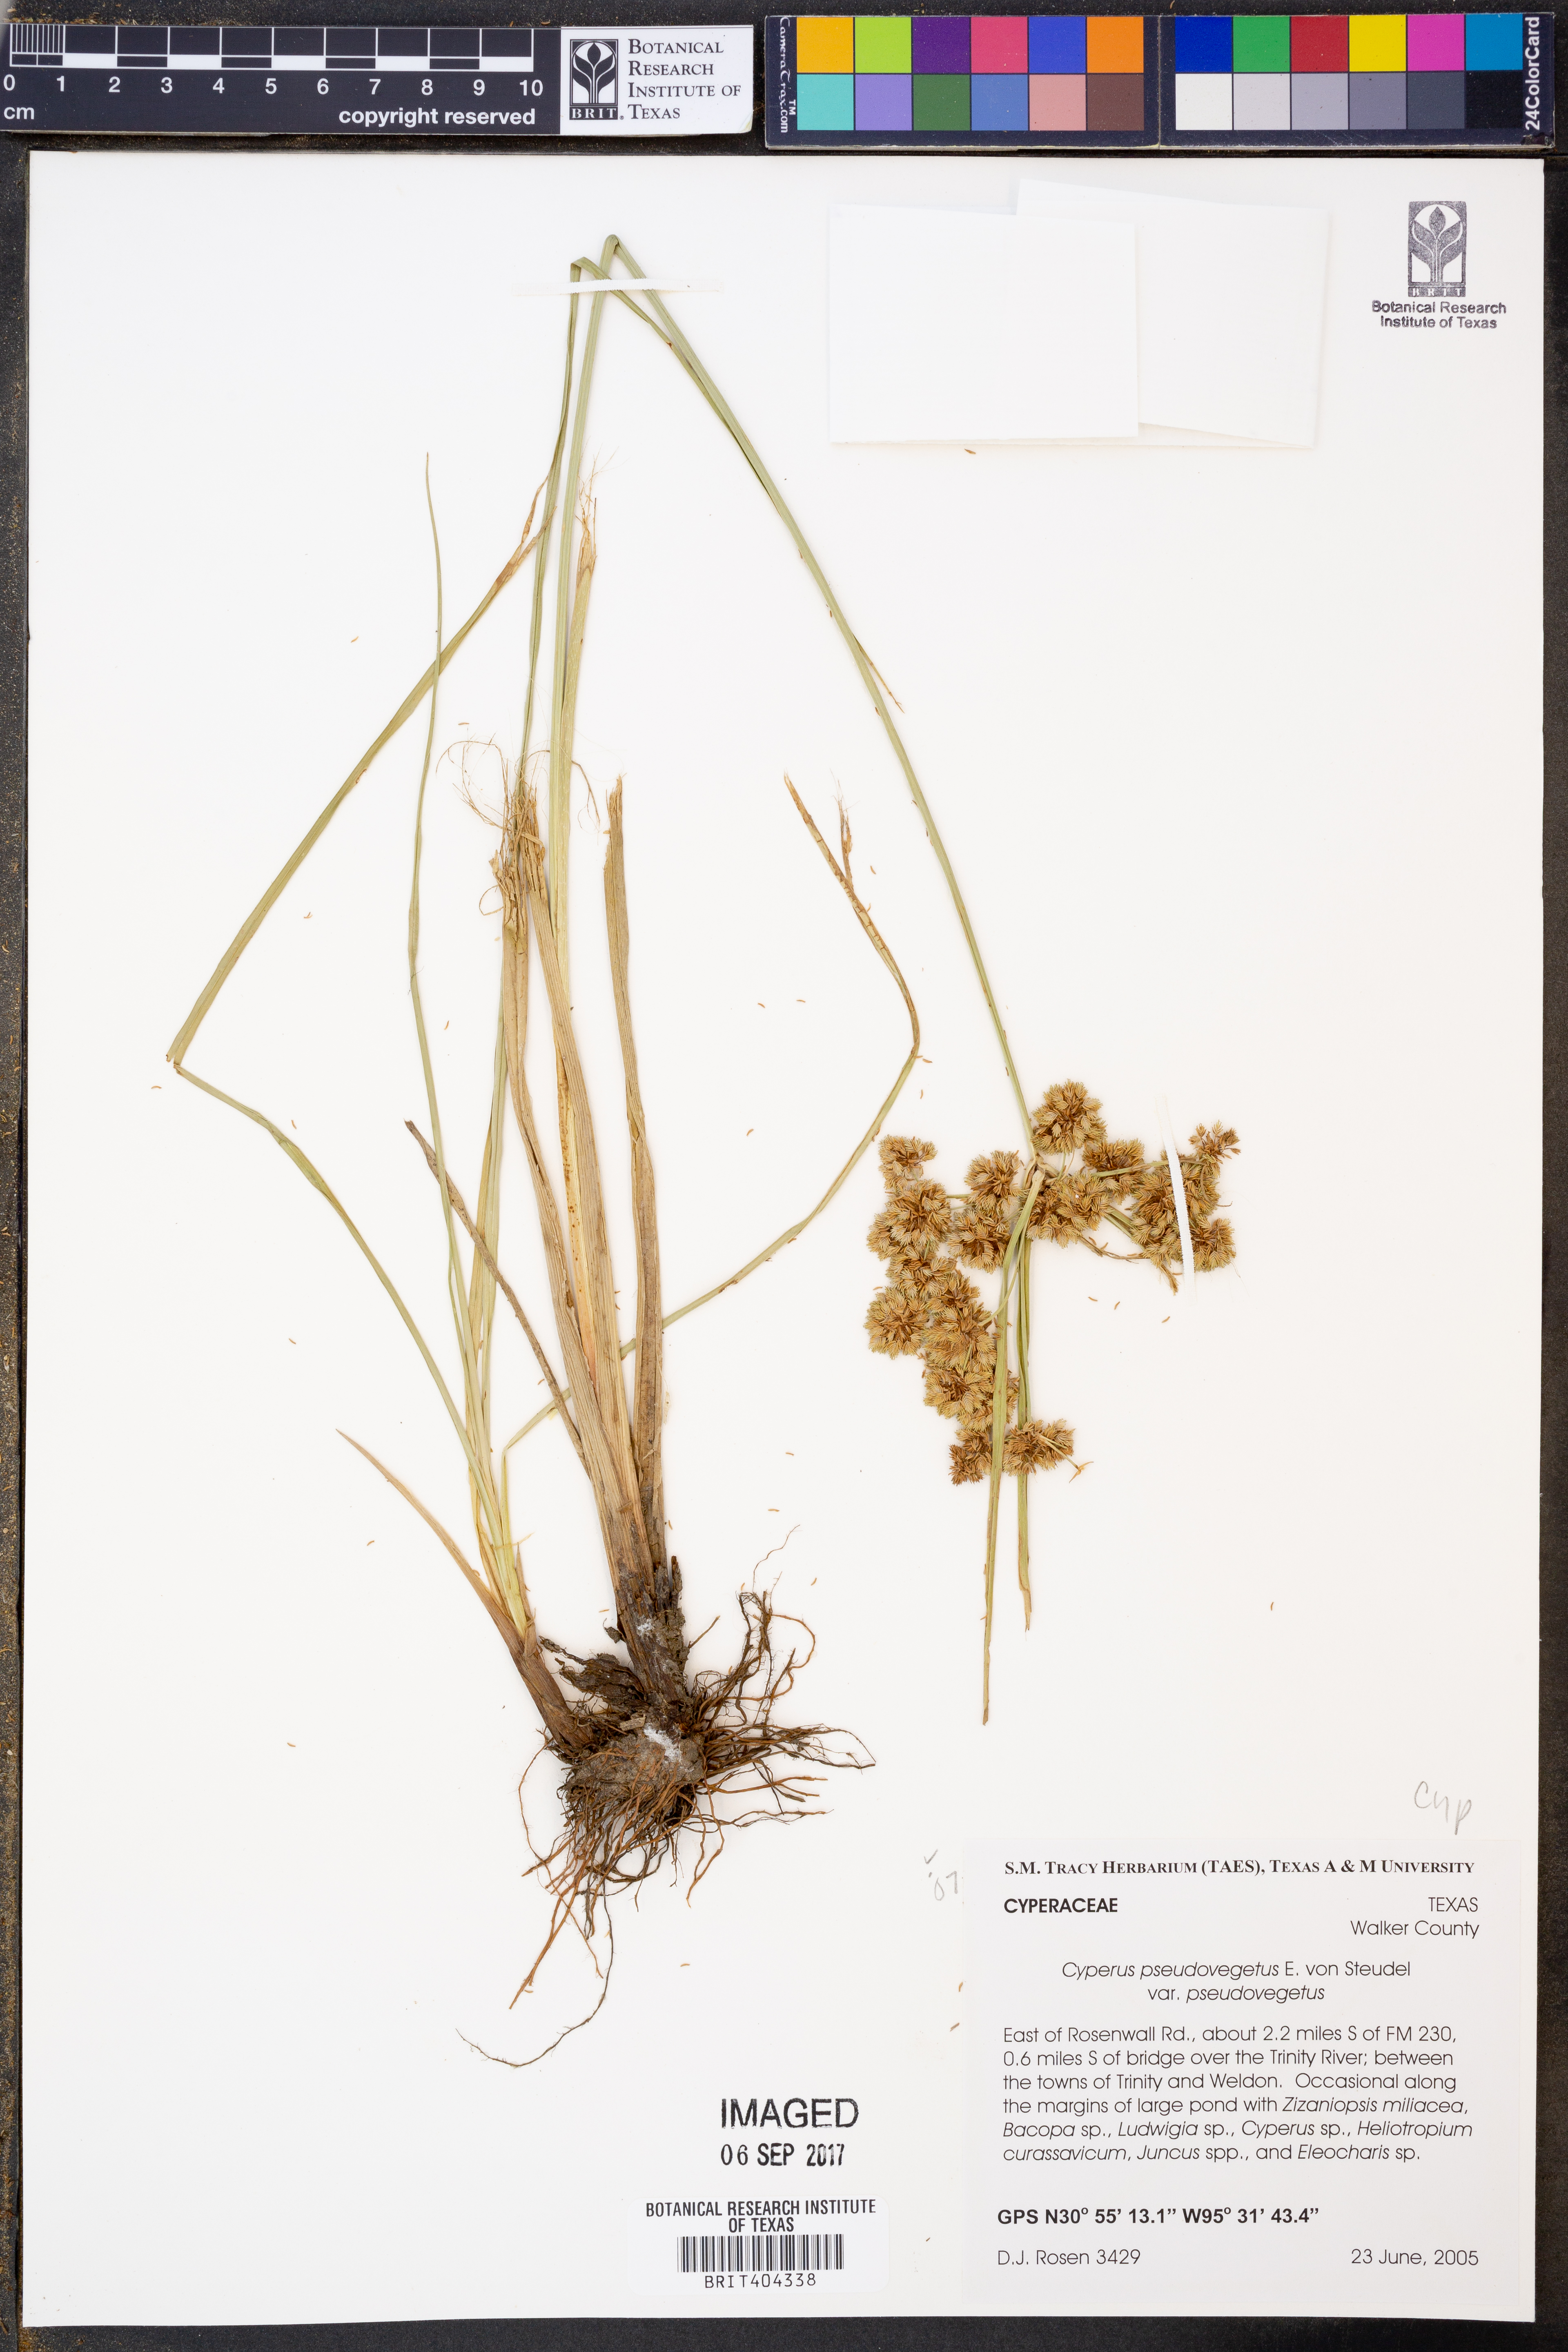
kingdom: Plantae
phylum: Tracheophyta
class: Liliopsida
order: Poales
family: Cyperaceae
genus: Cyperus
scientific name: Cyperus pseudovegetus
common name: Marsh flat sedge
